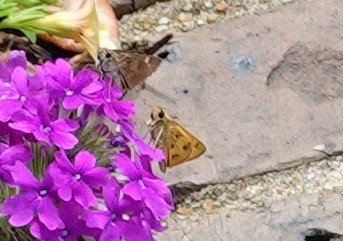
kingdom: Animalia
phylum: Arthropoda
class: Insecta
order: Lepidoptera
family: Hesperiidae
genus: Polites
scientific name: Polites vibex
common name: Whirlabout
